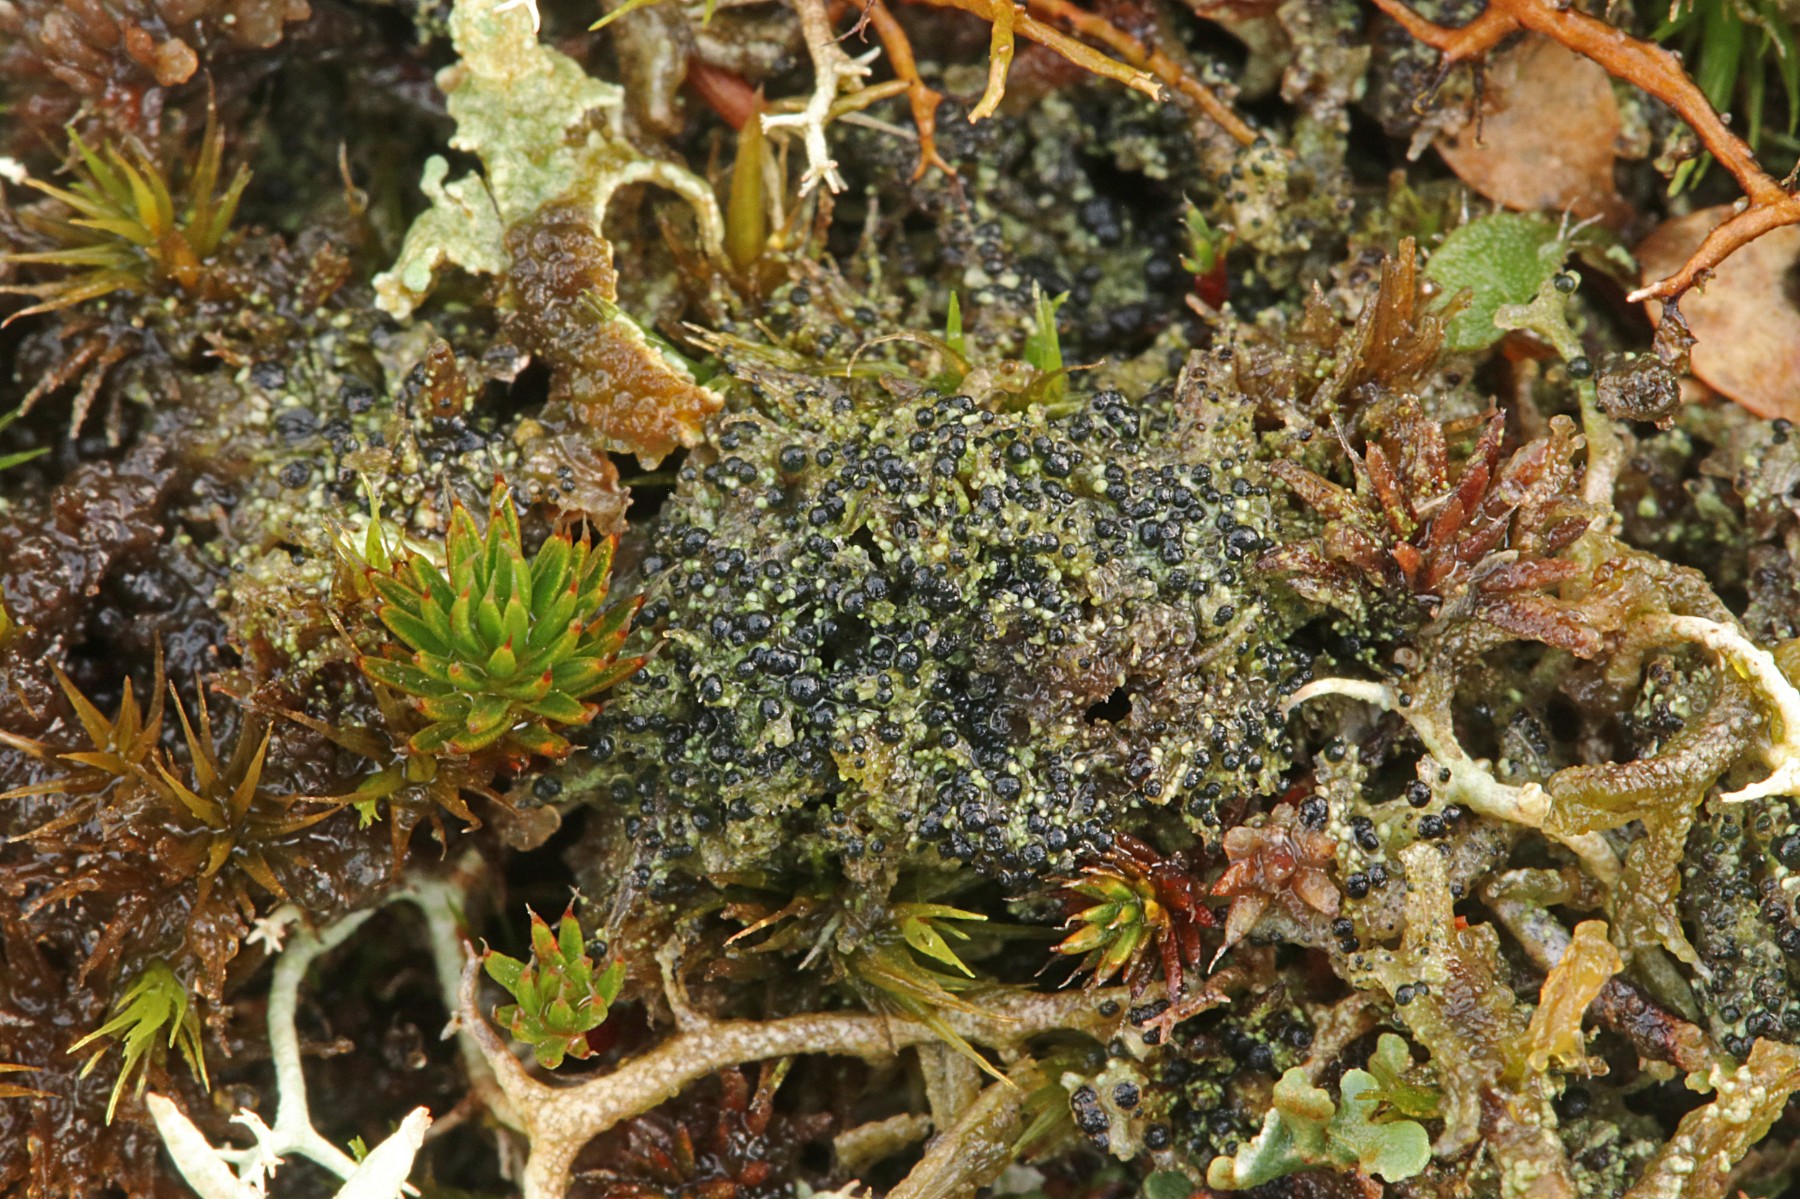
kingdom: Fungi
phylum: Ascomycota
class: Lecanoromycetes
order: Lecanorales
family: Byssolomataceae
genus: Micarea
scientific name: Micarea lignaria
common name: tørve-knaplav
